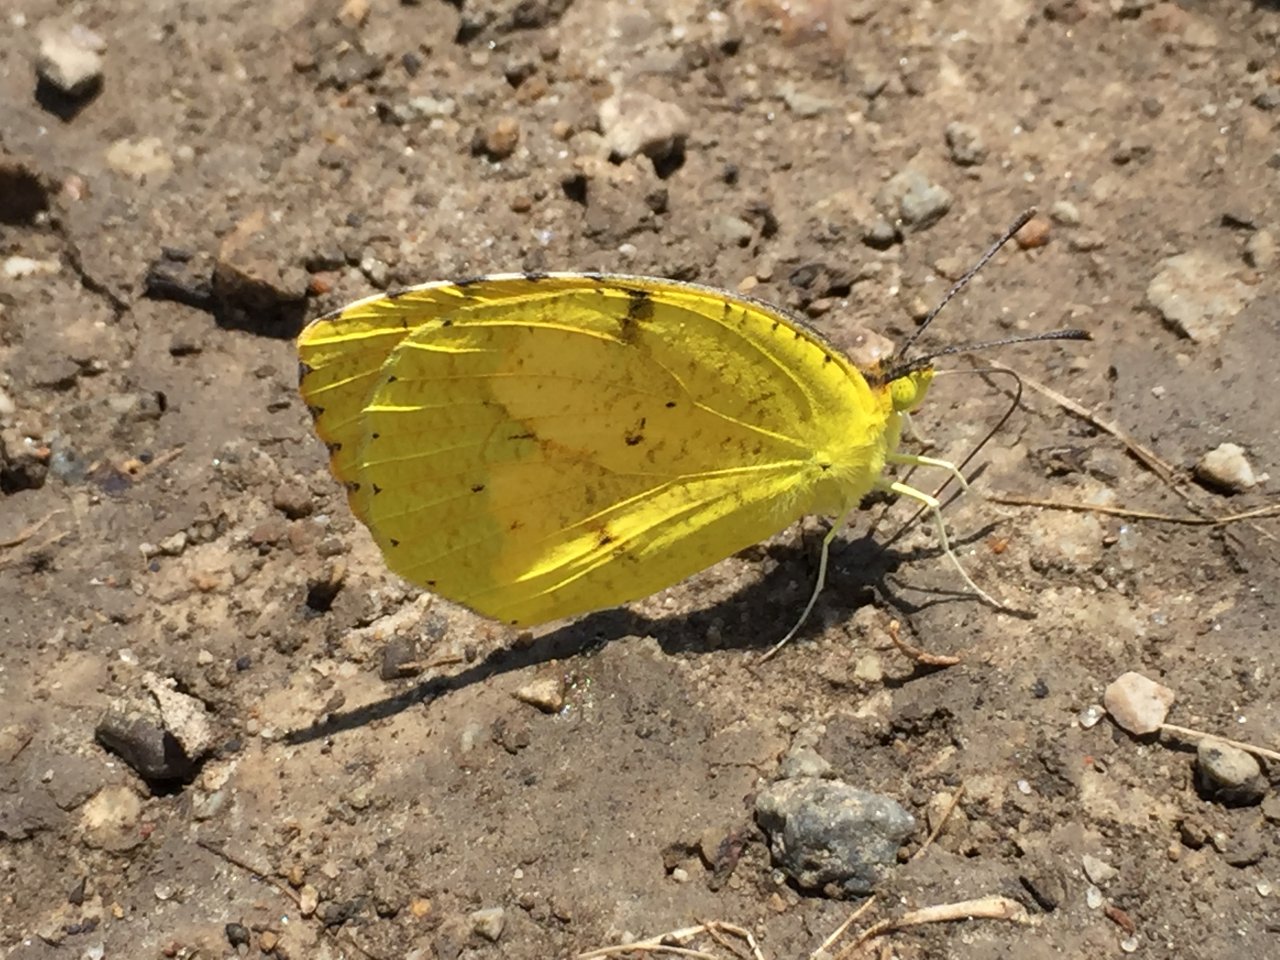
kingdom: Animalia
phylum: Arthropoda
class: Insecta
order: Lepidoptera
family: Pieridae
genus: Abaeis
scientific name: Abaeis nicippe
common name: Sleepy Orange
